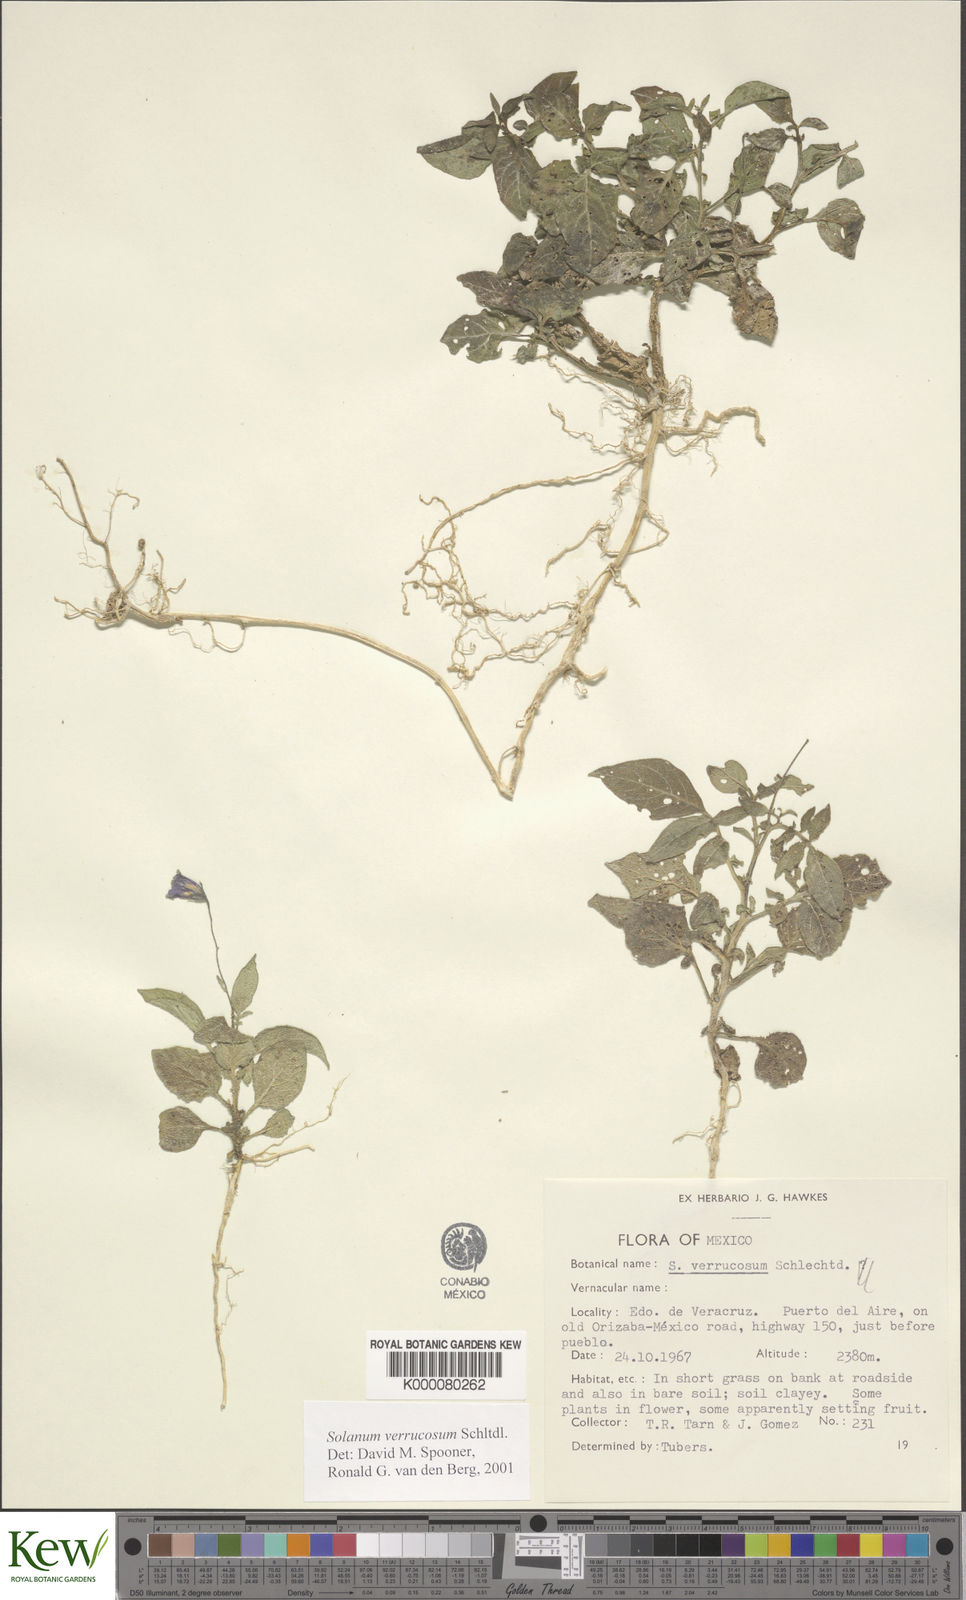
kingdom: Plantae
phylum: Tracheophyta
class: Magnoliopsida
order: Solanales
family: Solanaceae
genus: Solanum
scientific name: Solanum verrucosum
